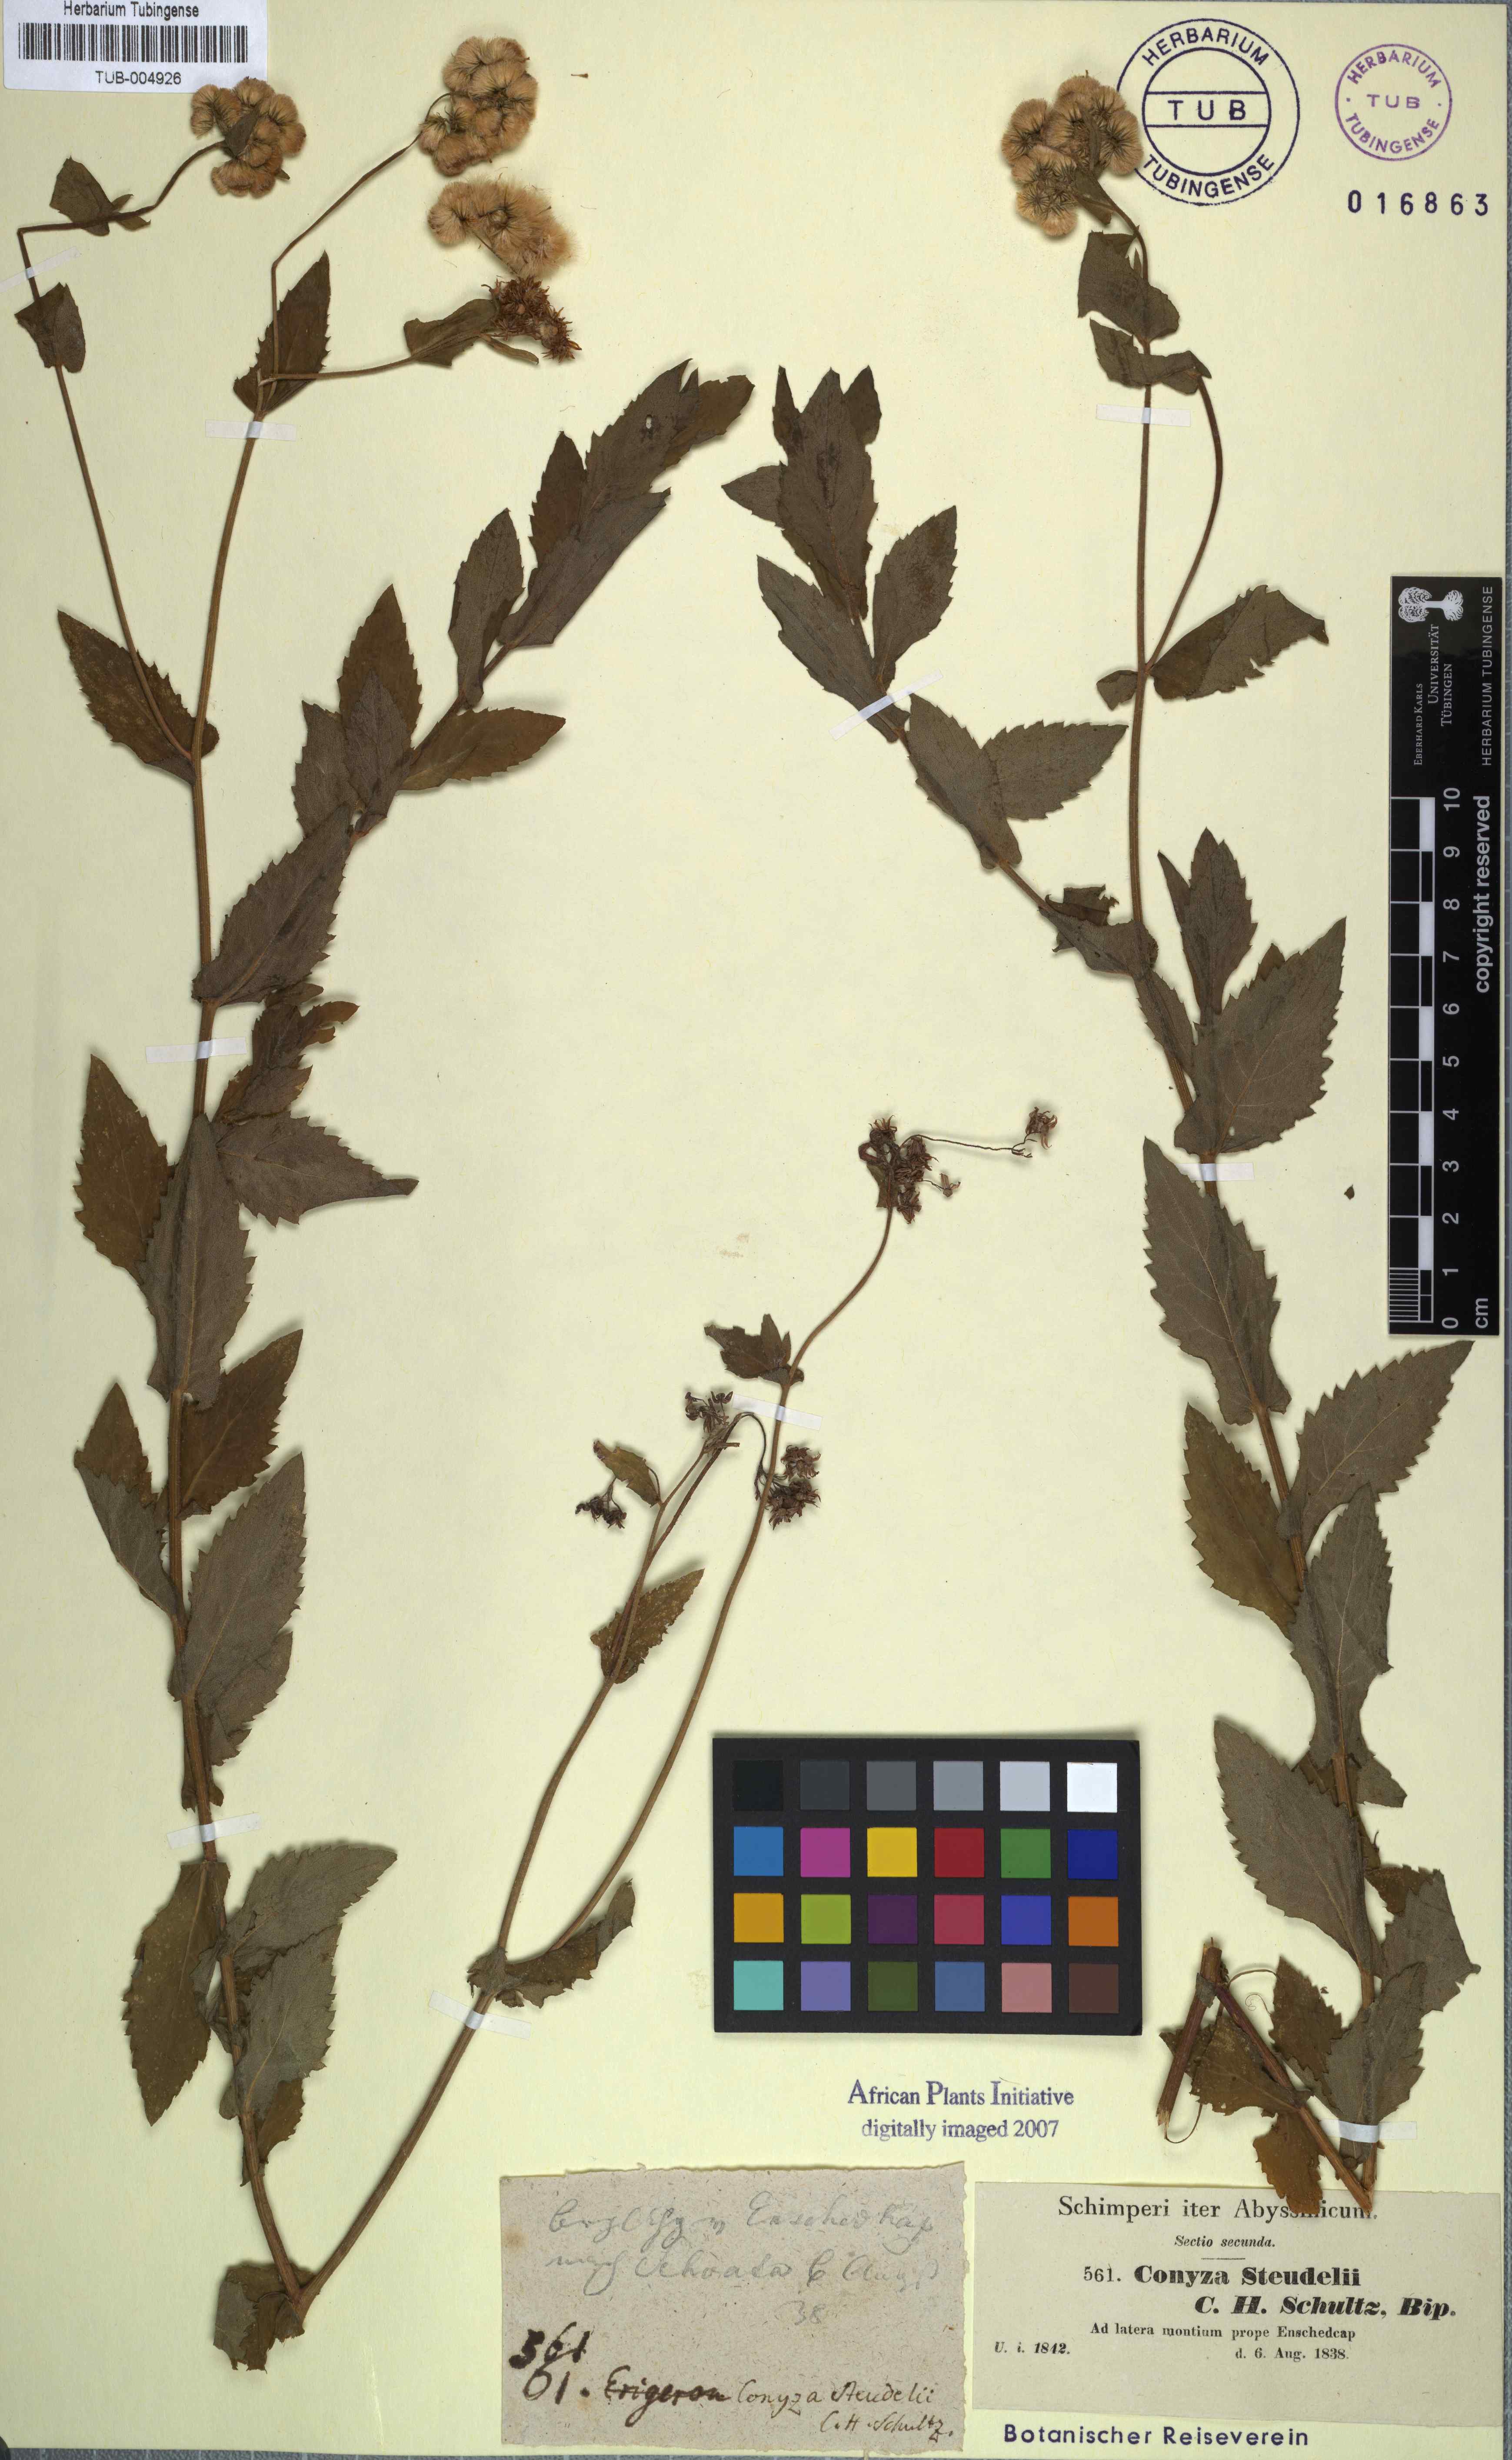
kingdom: Plantae
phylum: Tracheophyta
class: Magnoliopsida
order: Asterales
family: Asteraceae
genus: Conyza
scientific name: Conyza steudelii
